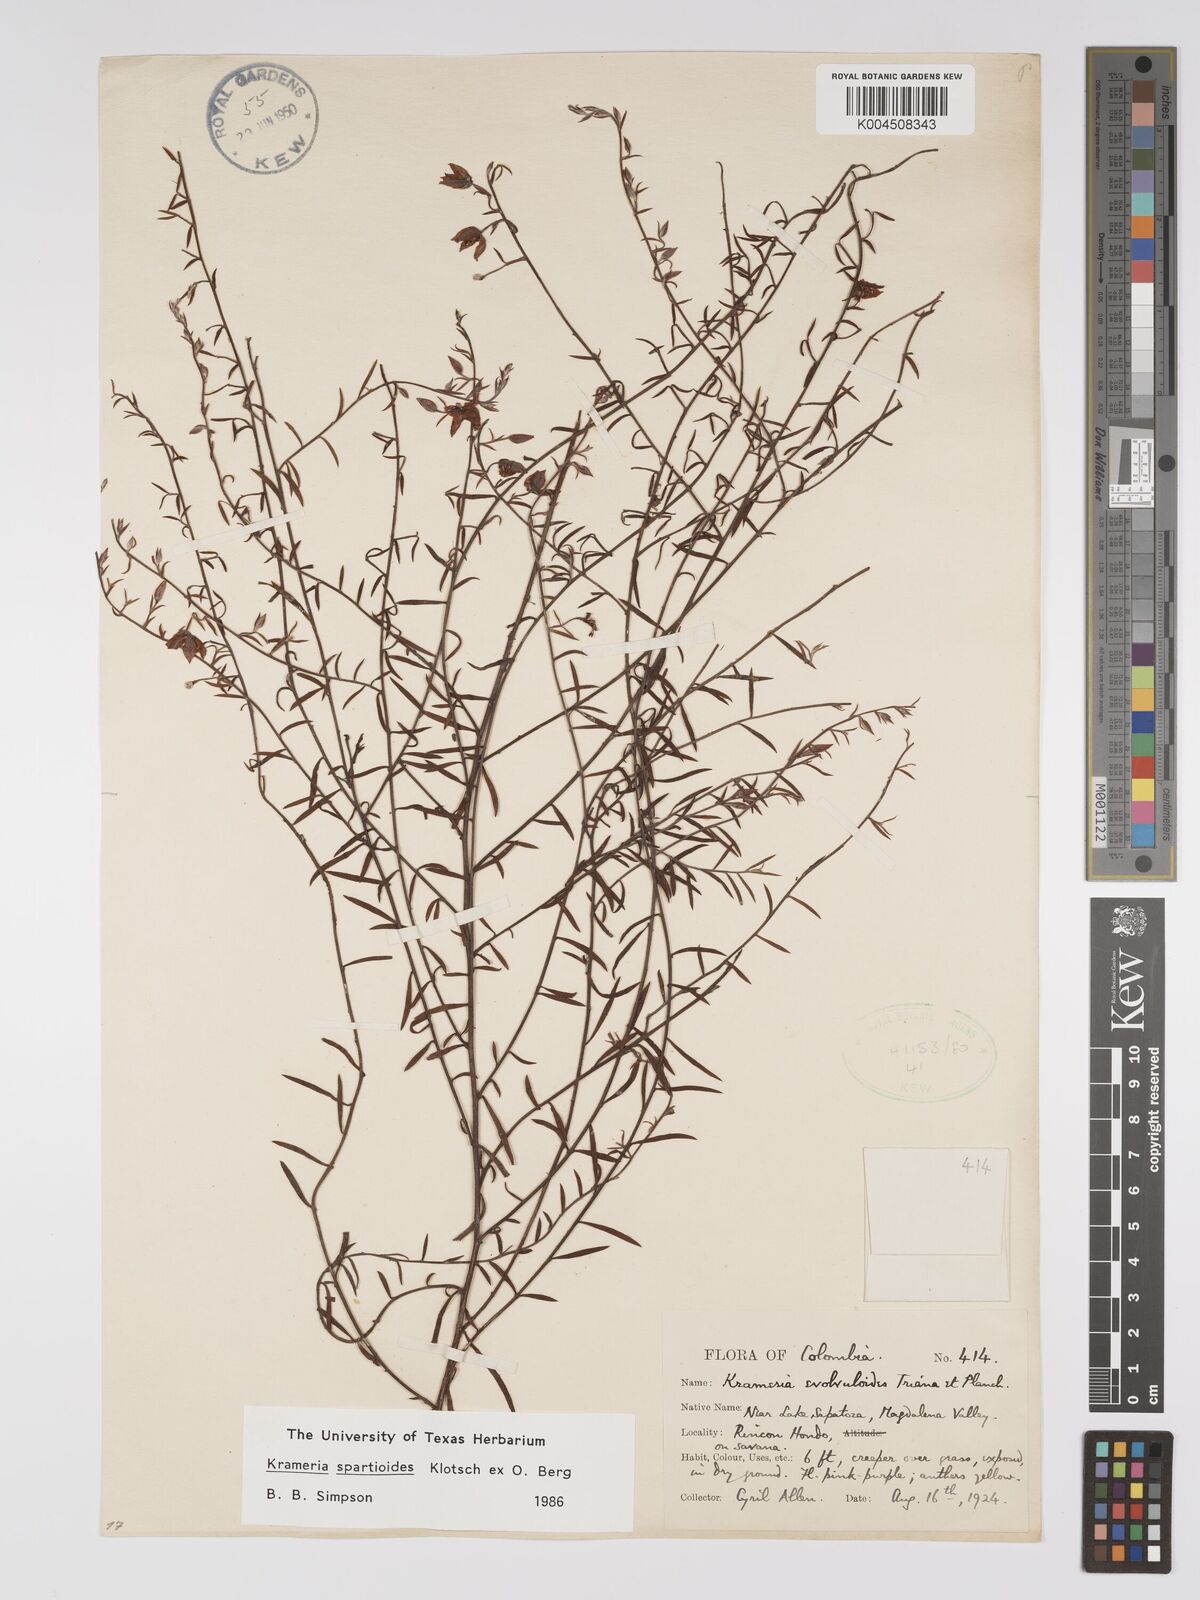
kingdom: Plantae
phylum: Tracheophyta
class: Magnoliopsida
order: Zygophyllales
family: Krameriaceae
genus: Krameria
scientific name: Krameria spartioides
